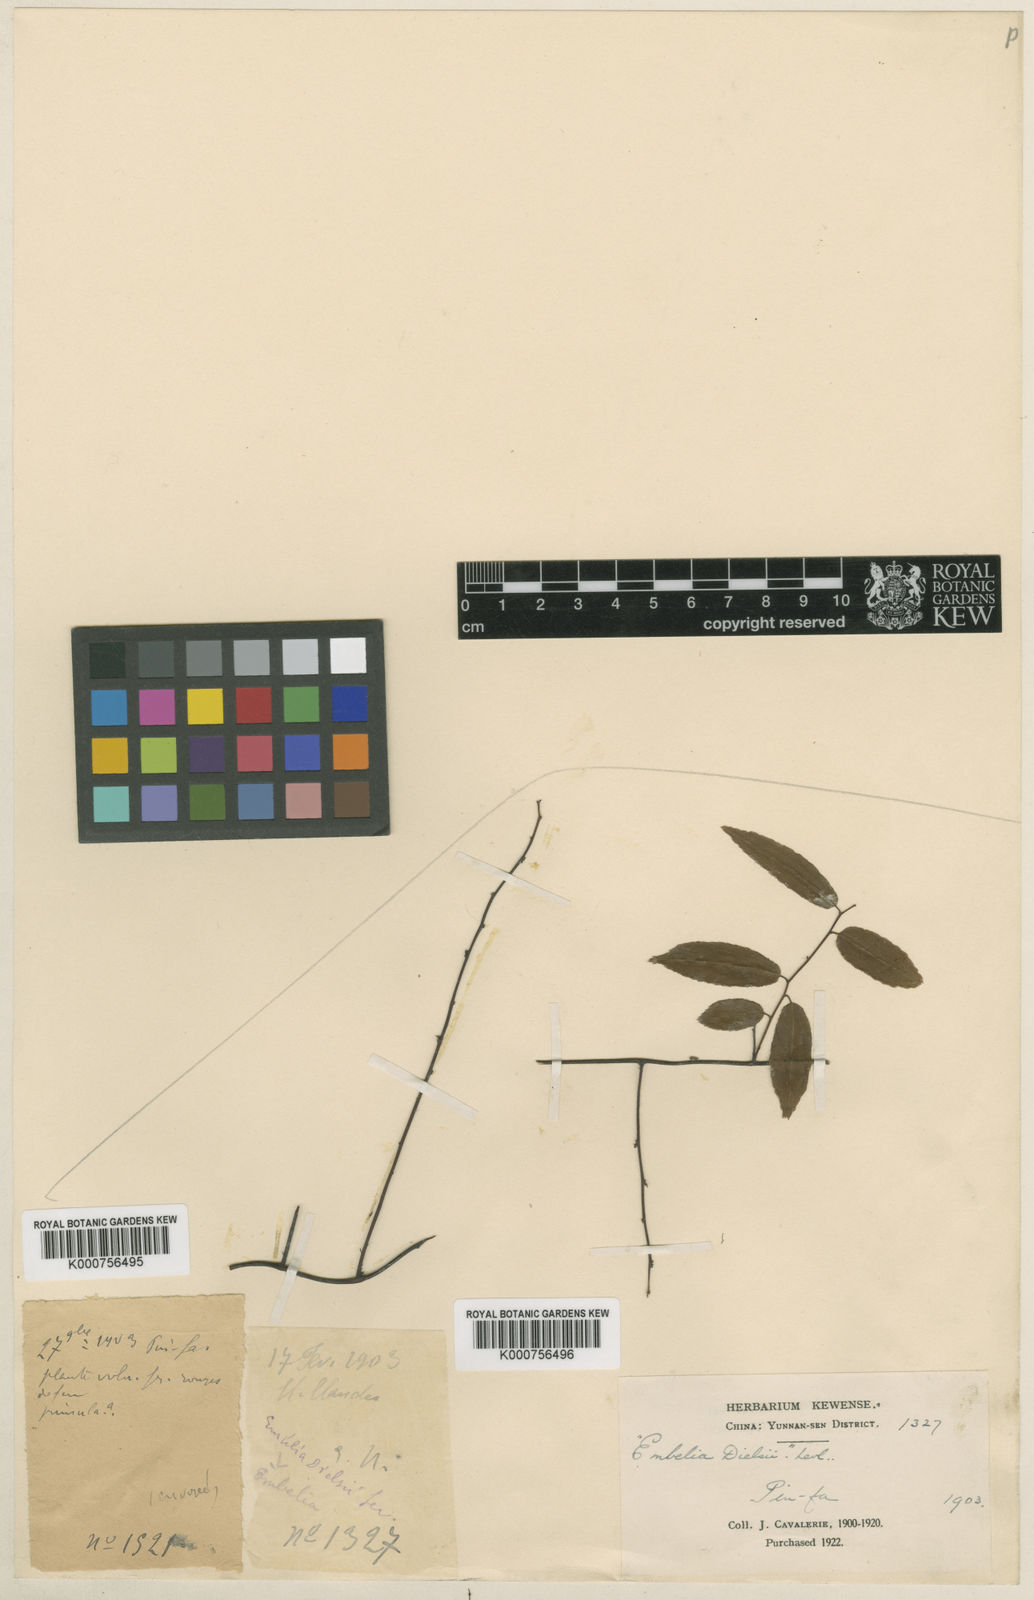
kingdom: Plantae
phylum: Tracheophyta
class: Magnoliopsida
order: Ericales
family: Primulaceae
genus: Embelia
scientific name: Embelia pauciflora
